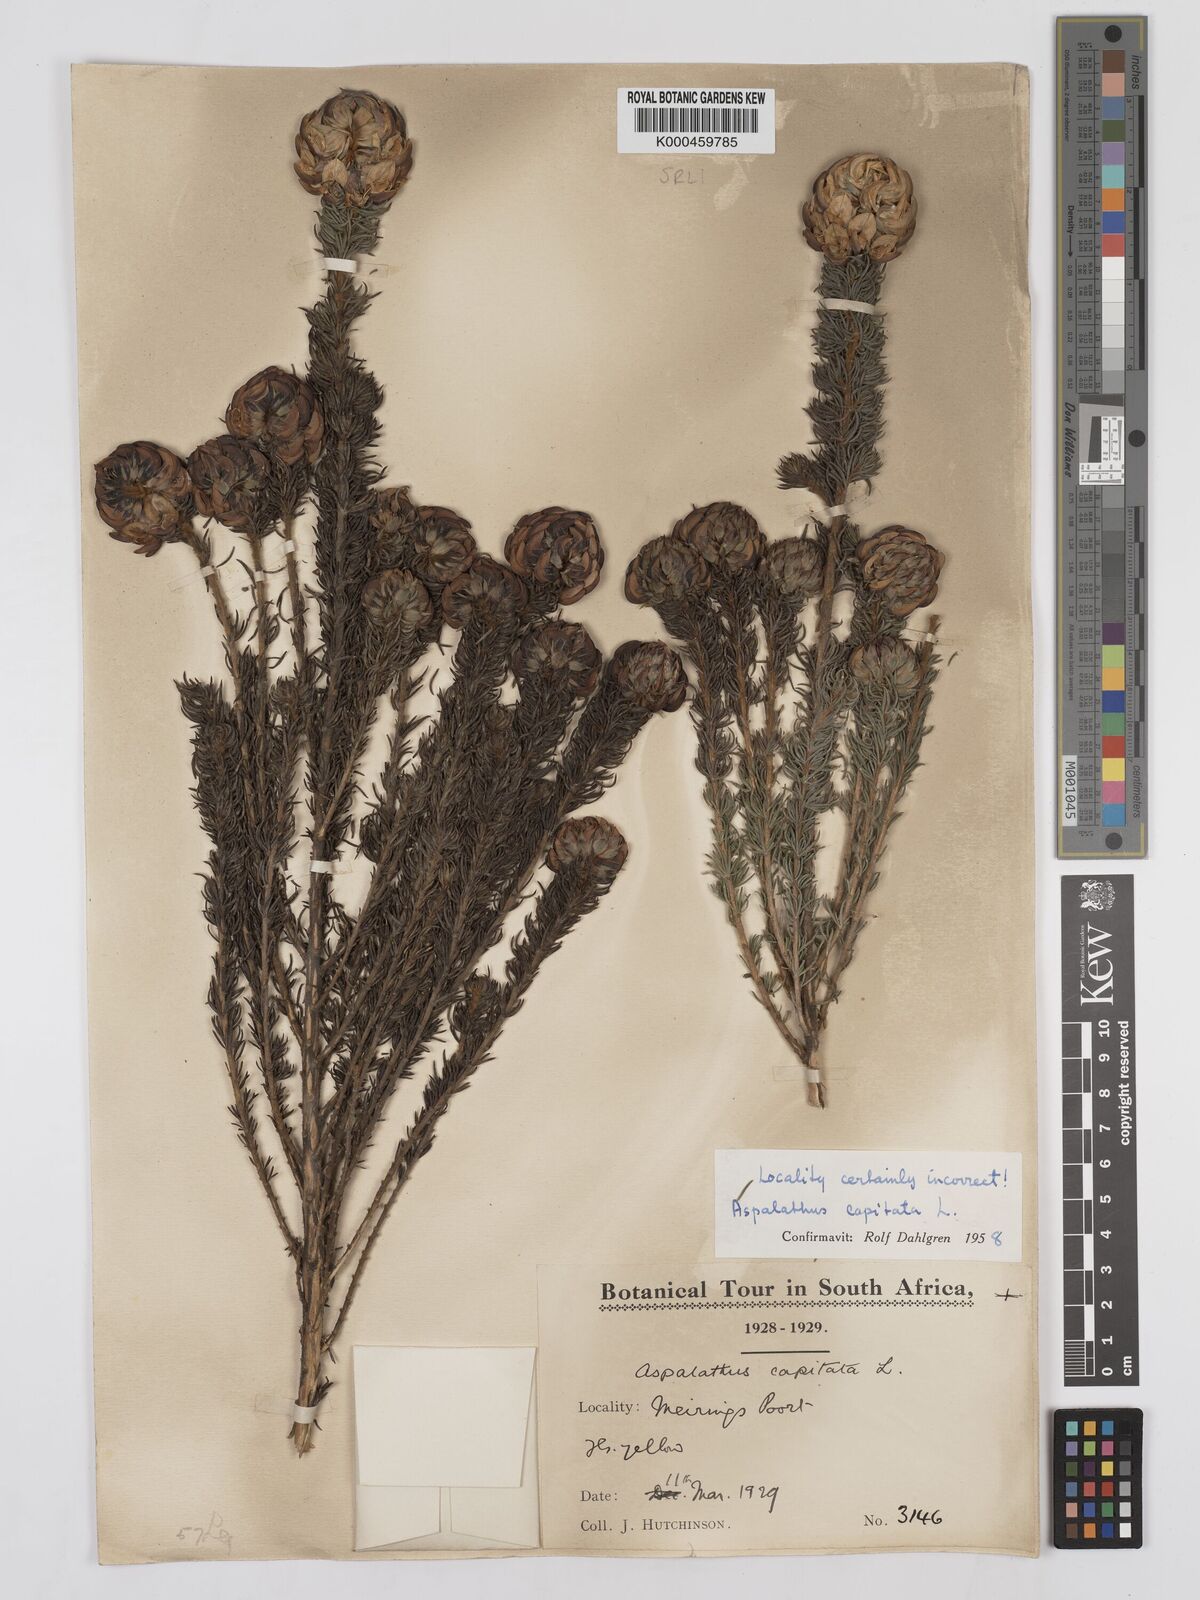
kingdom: Plantae
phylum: Tracheophyta
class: Magnoliopsida
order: Fabales
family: Fabaceae
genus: Aspalathus
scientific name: Aspalathus capitata
